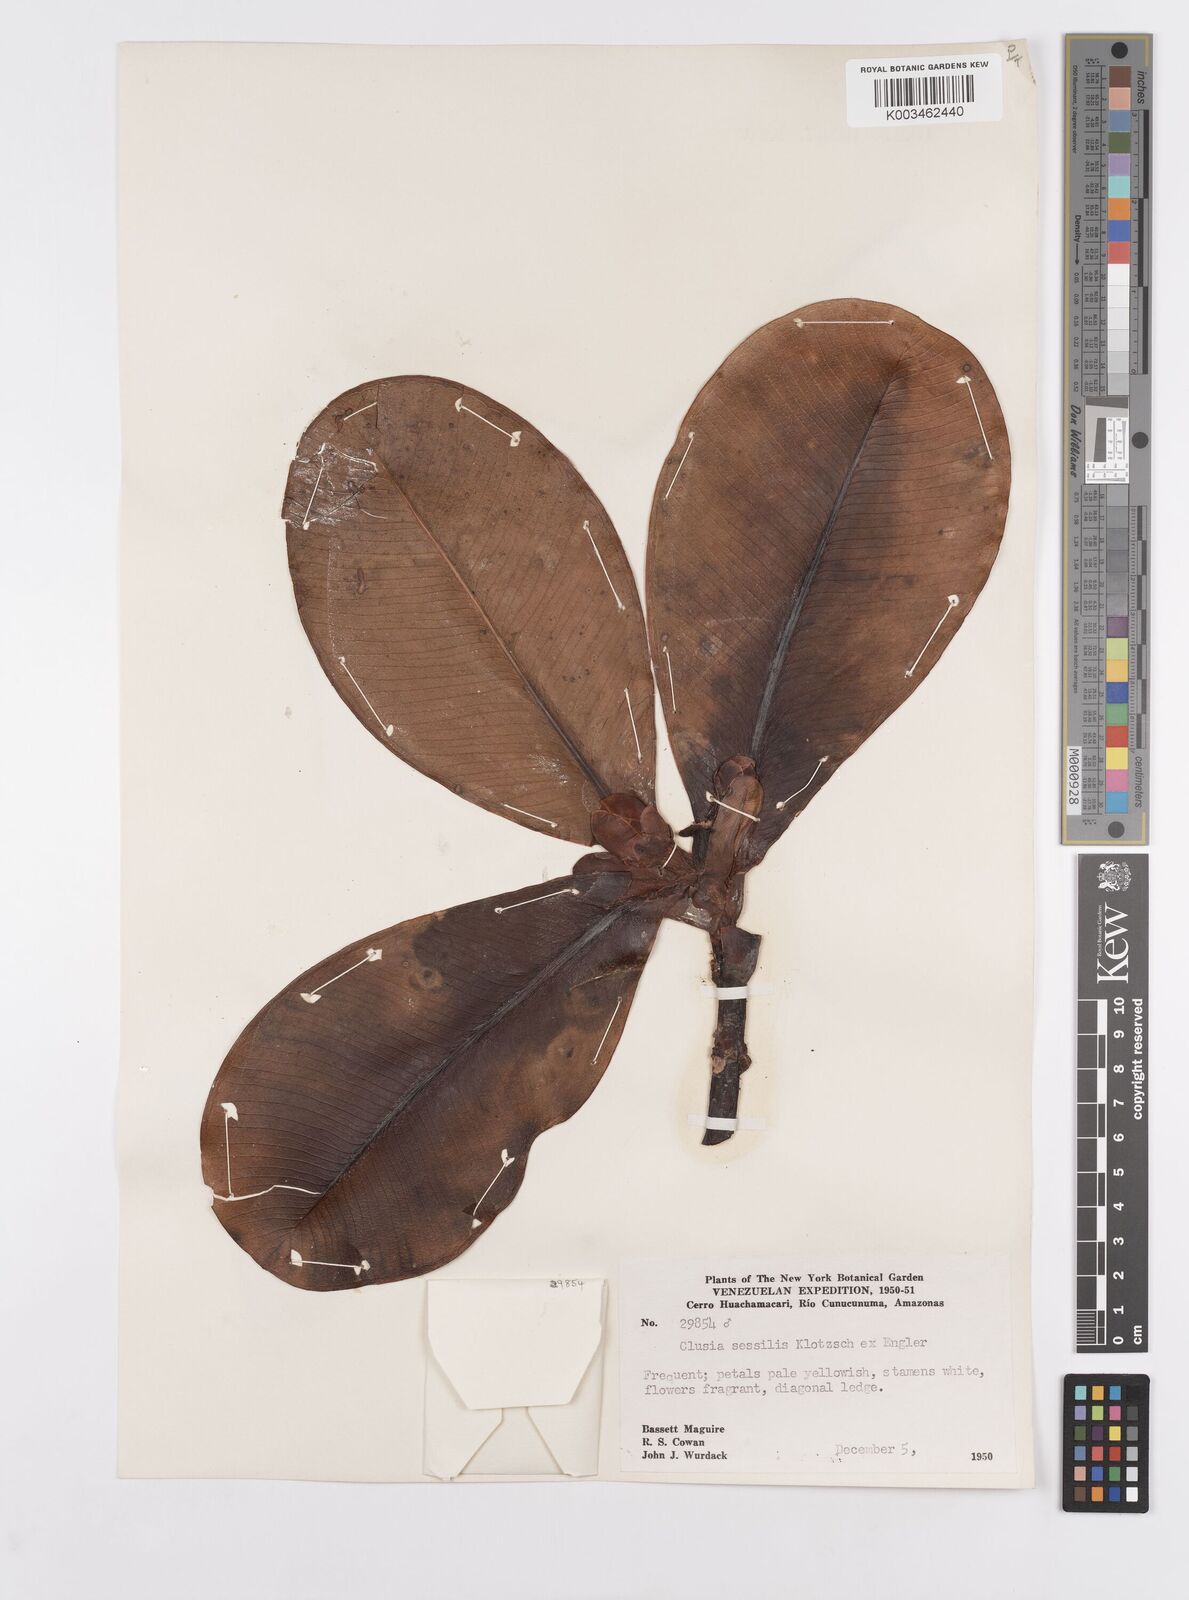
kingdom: Plantae
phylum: Tracheophyta
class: Magnoliopsida
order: Malpighiales
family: Clusiaceae
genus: Garcinia
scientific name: Garcinia sessilis
